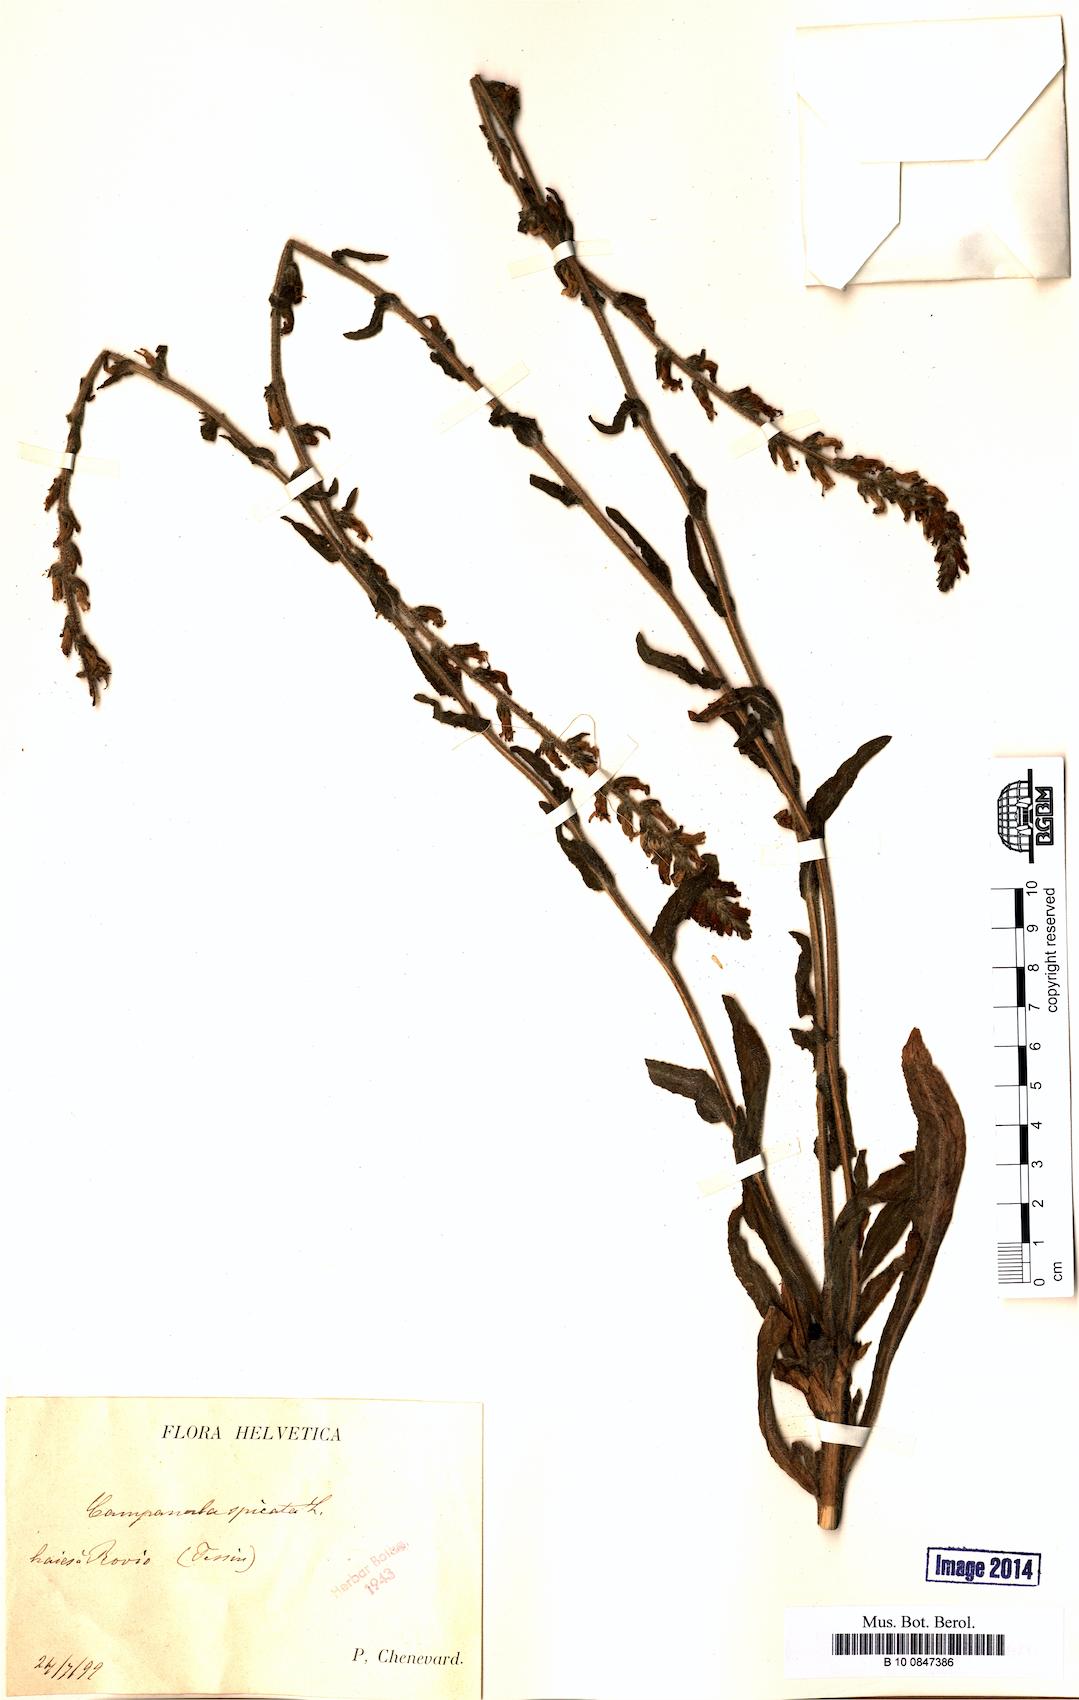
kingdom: Plantae
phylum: Tracheophyta
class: Magnoliopsida
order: Asterales
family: Campanulaceae
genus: Campanula
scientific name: Campanula spicata
